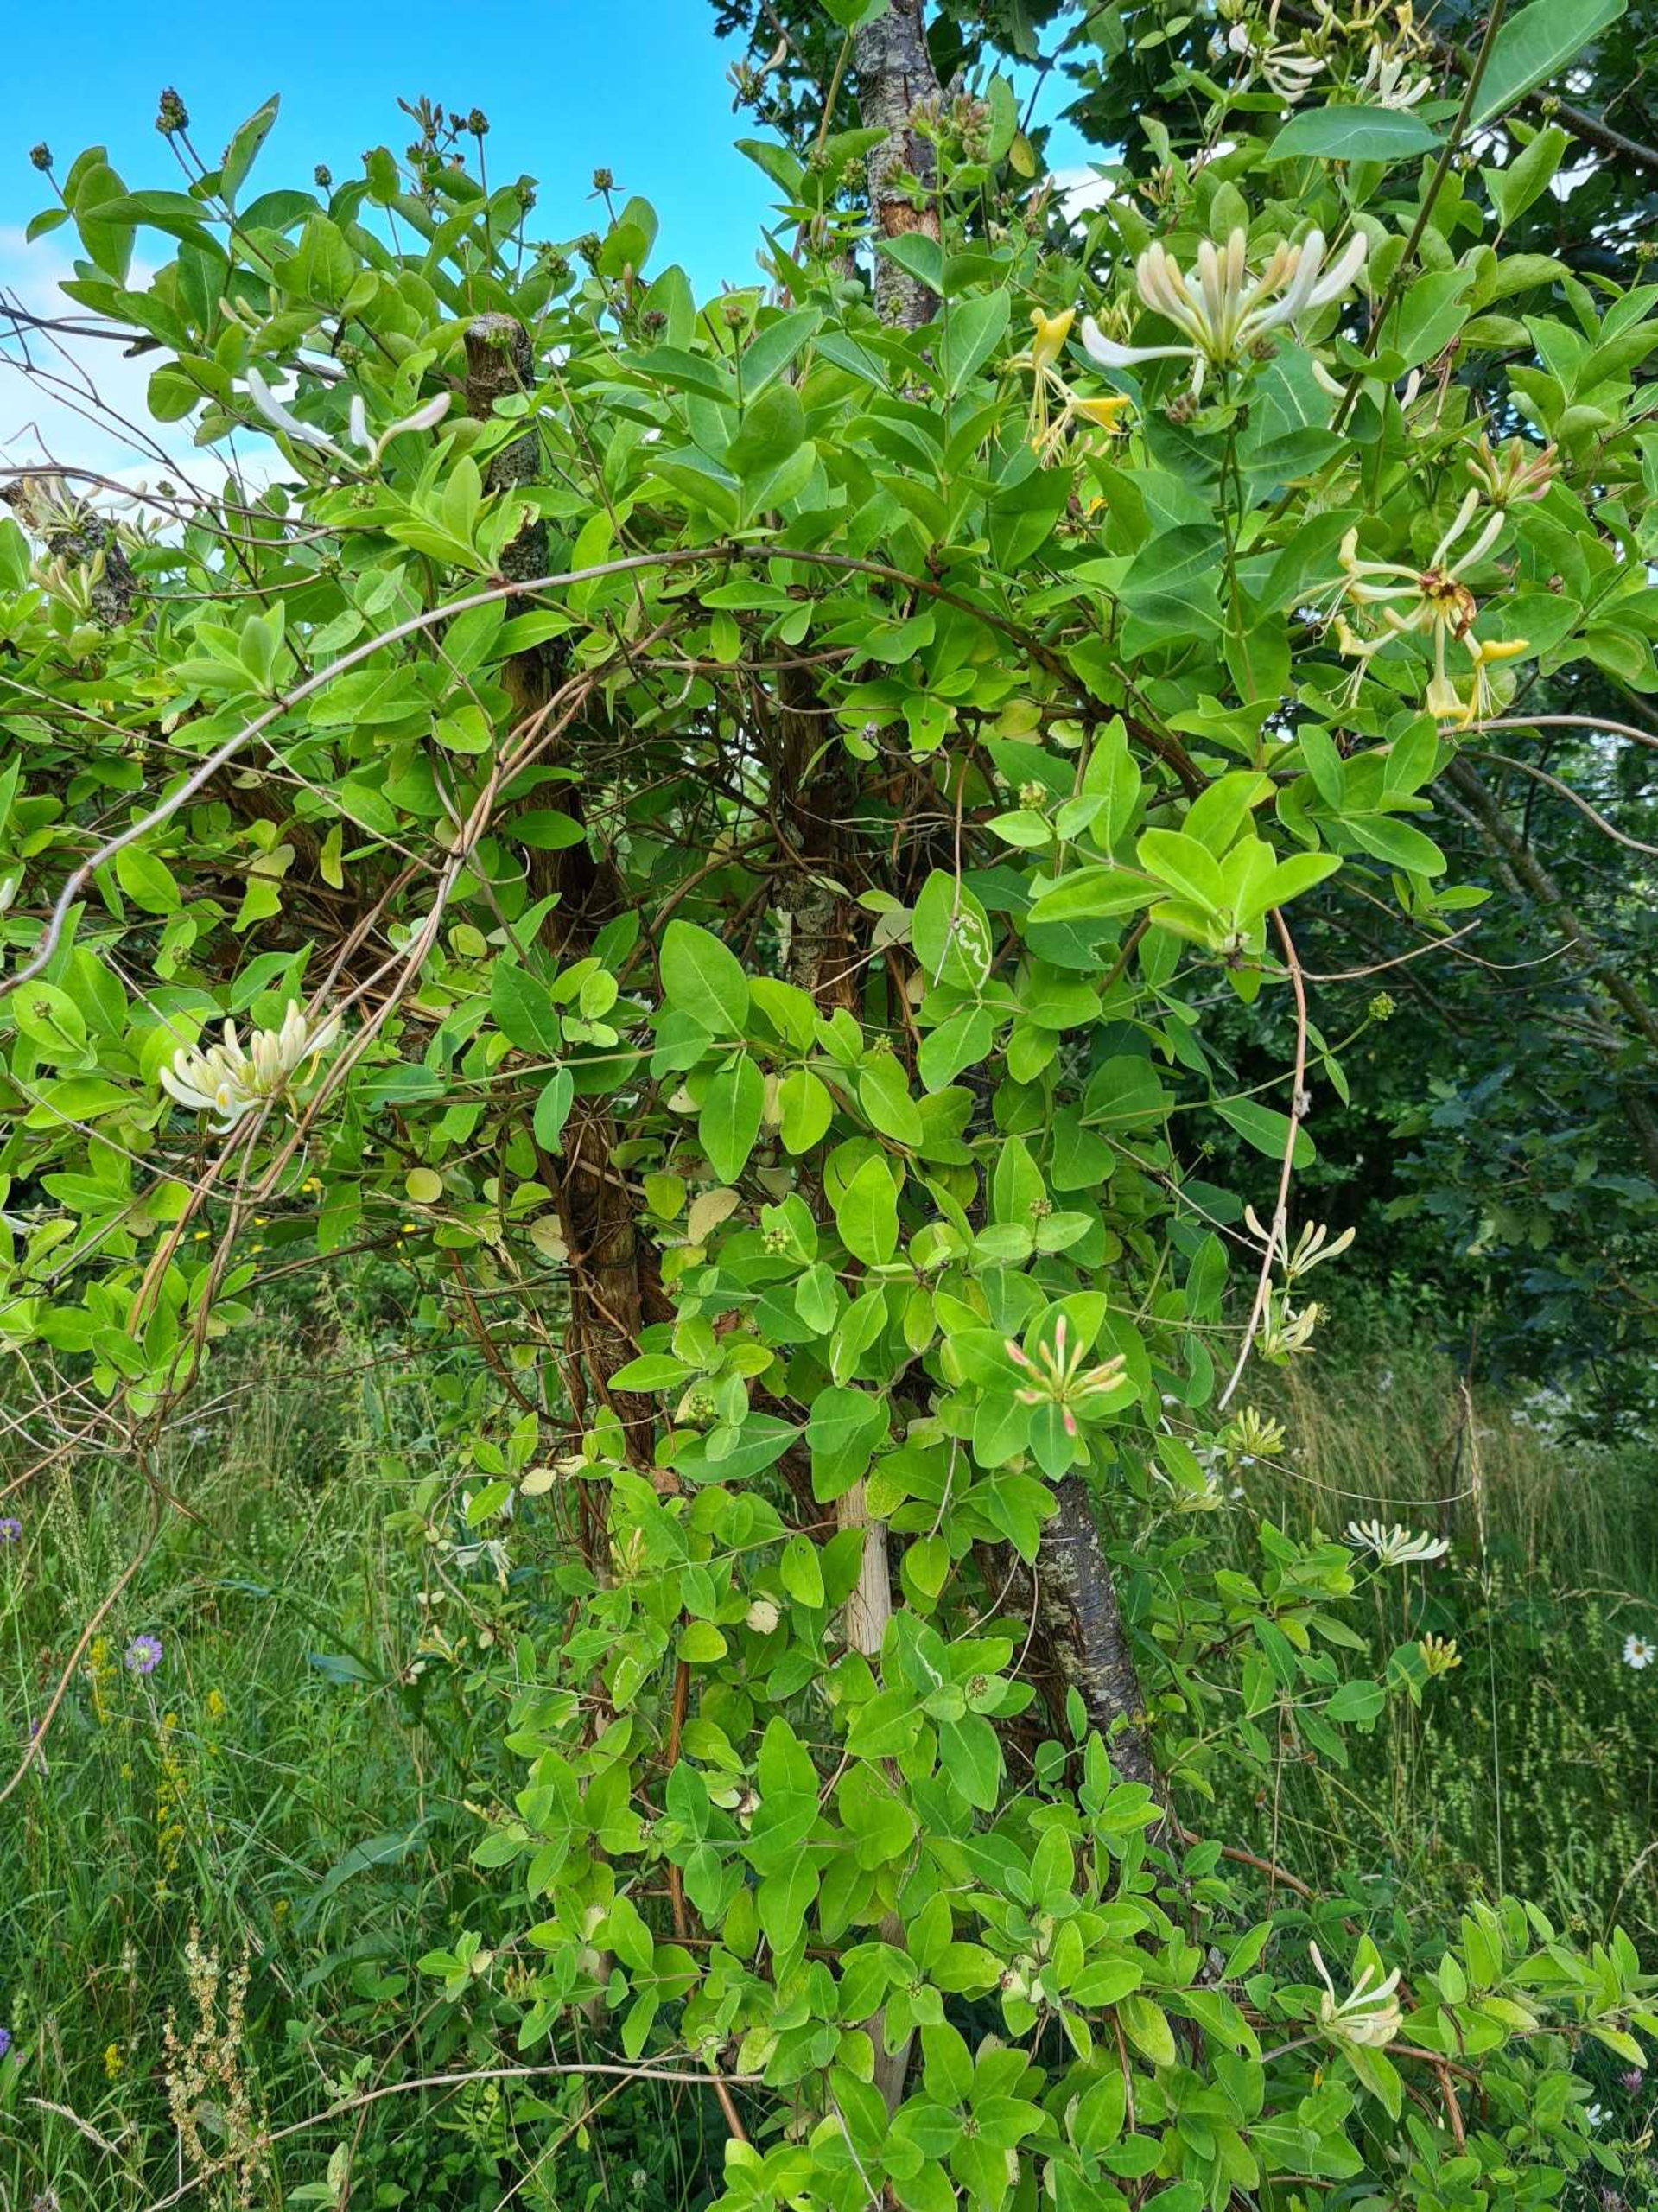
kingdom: Plantae
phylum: Tracheophyta
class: Magnoliopsida
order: Dipsacales
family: Caprifoliaceae
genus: Lonicera
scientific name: Lonicera periclymenum
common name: Almindelig gedeblad
